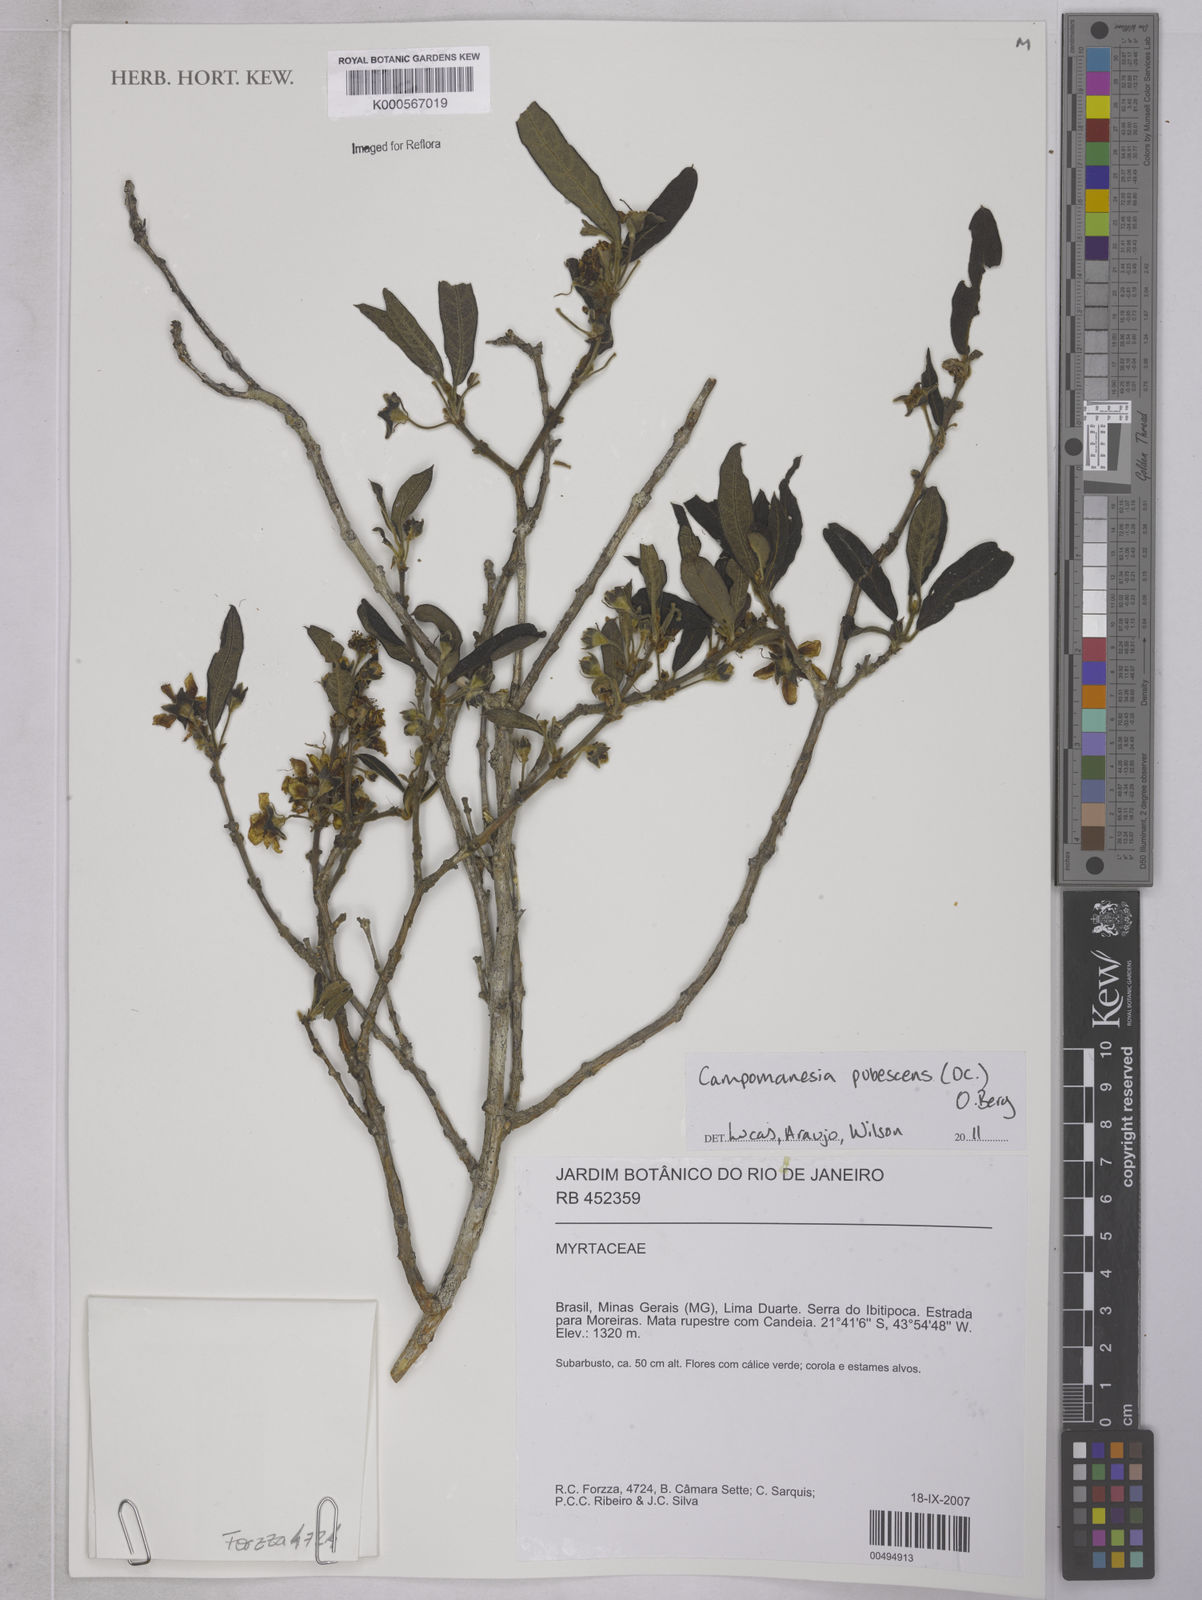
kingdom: Plantae
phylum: Tracheophyta
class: Magnoliopsida
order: Myrtales
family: Myrtaceae
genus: Campomanesia
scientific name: Campomanesia pubescens
